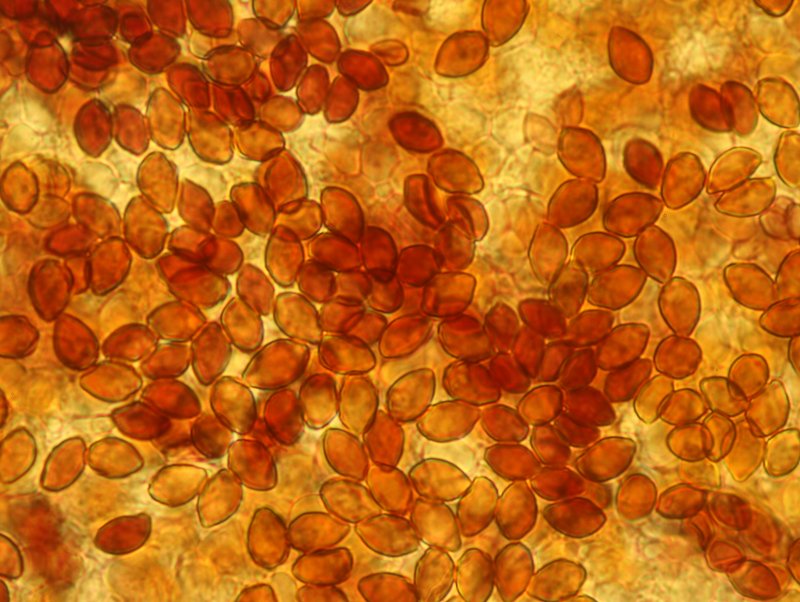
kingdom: Fungi
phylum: Basidiomycota
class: Agaricomycetes
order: Agaricales
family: Hymenogastraceae
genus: Galerina
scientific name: Galerina sphagnicola
